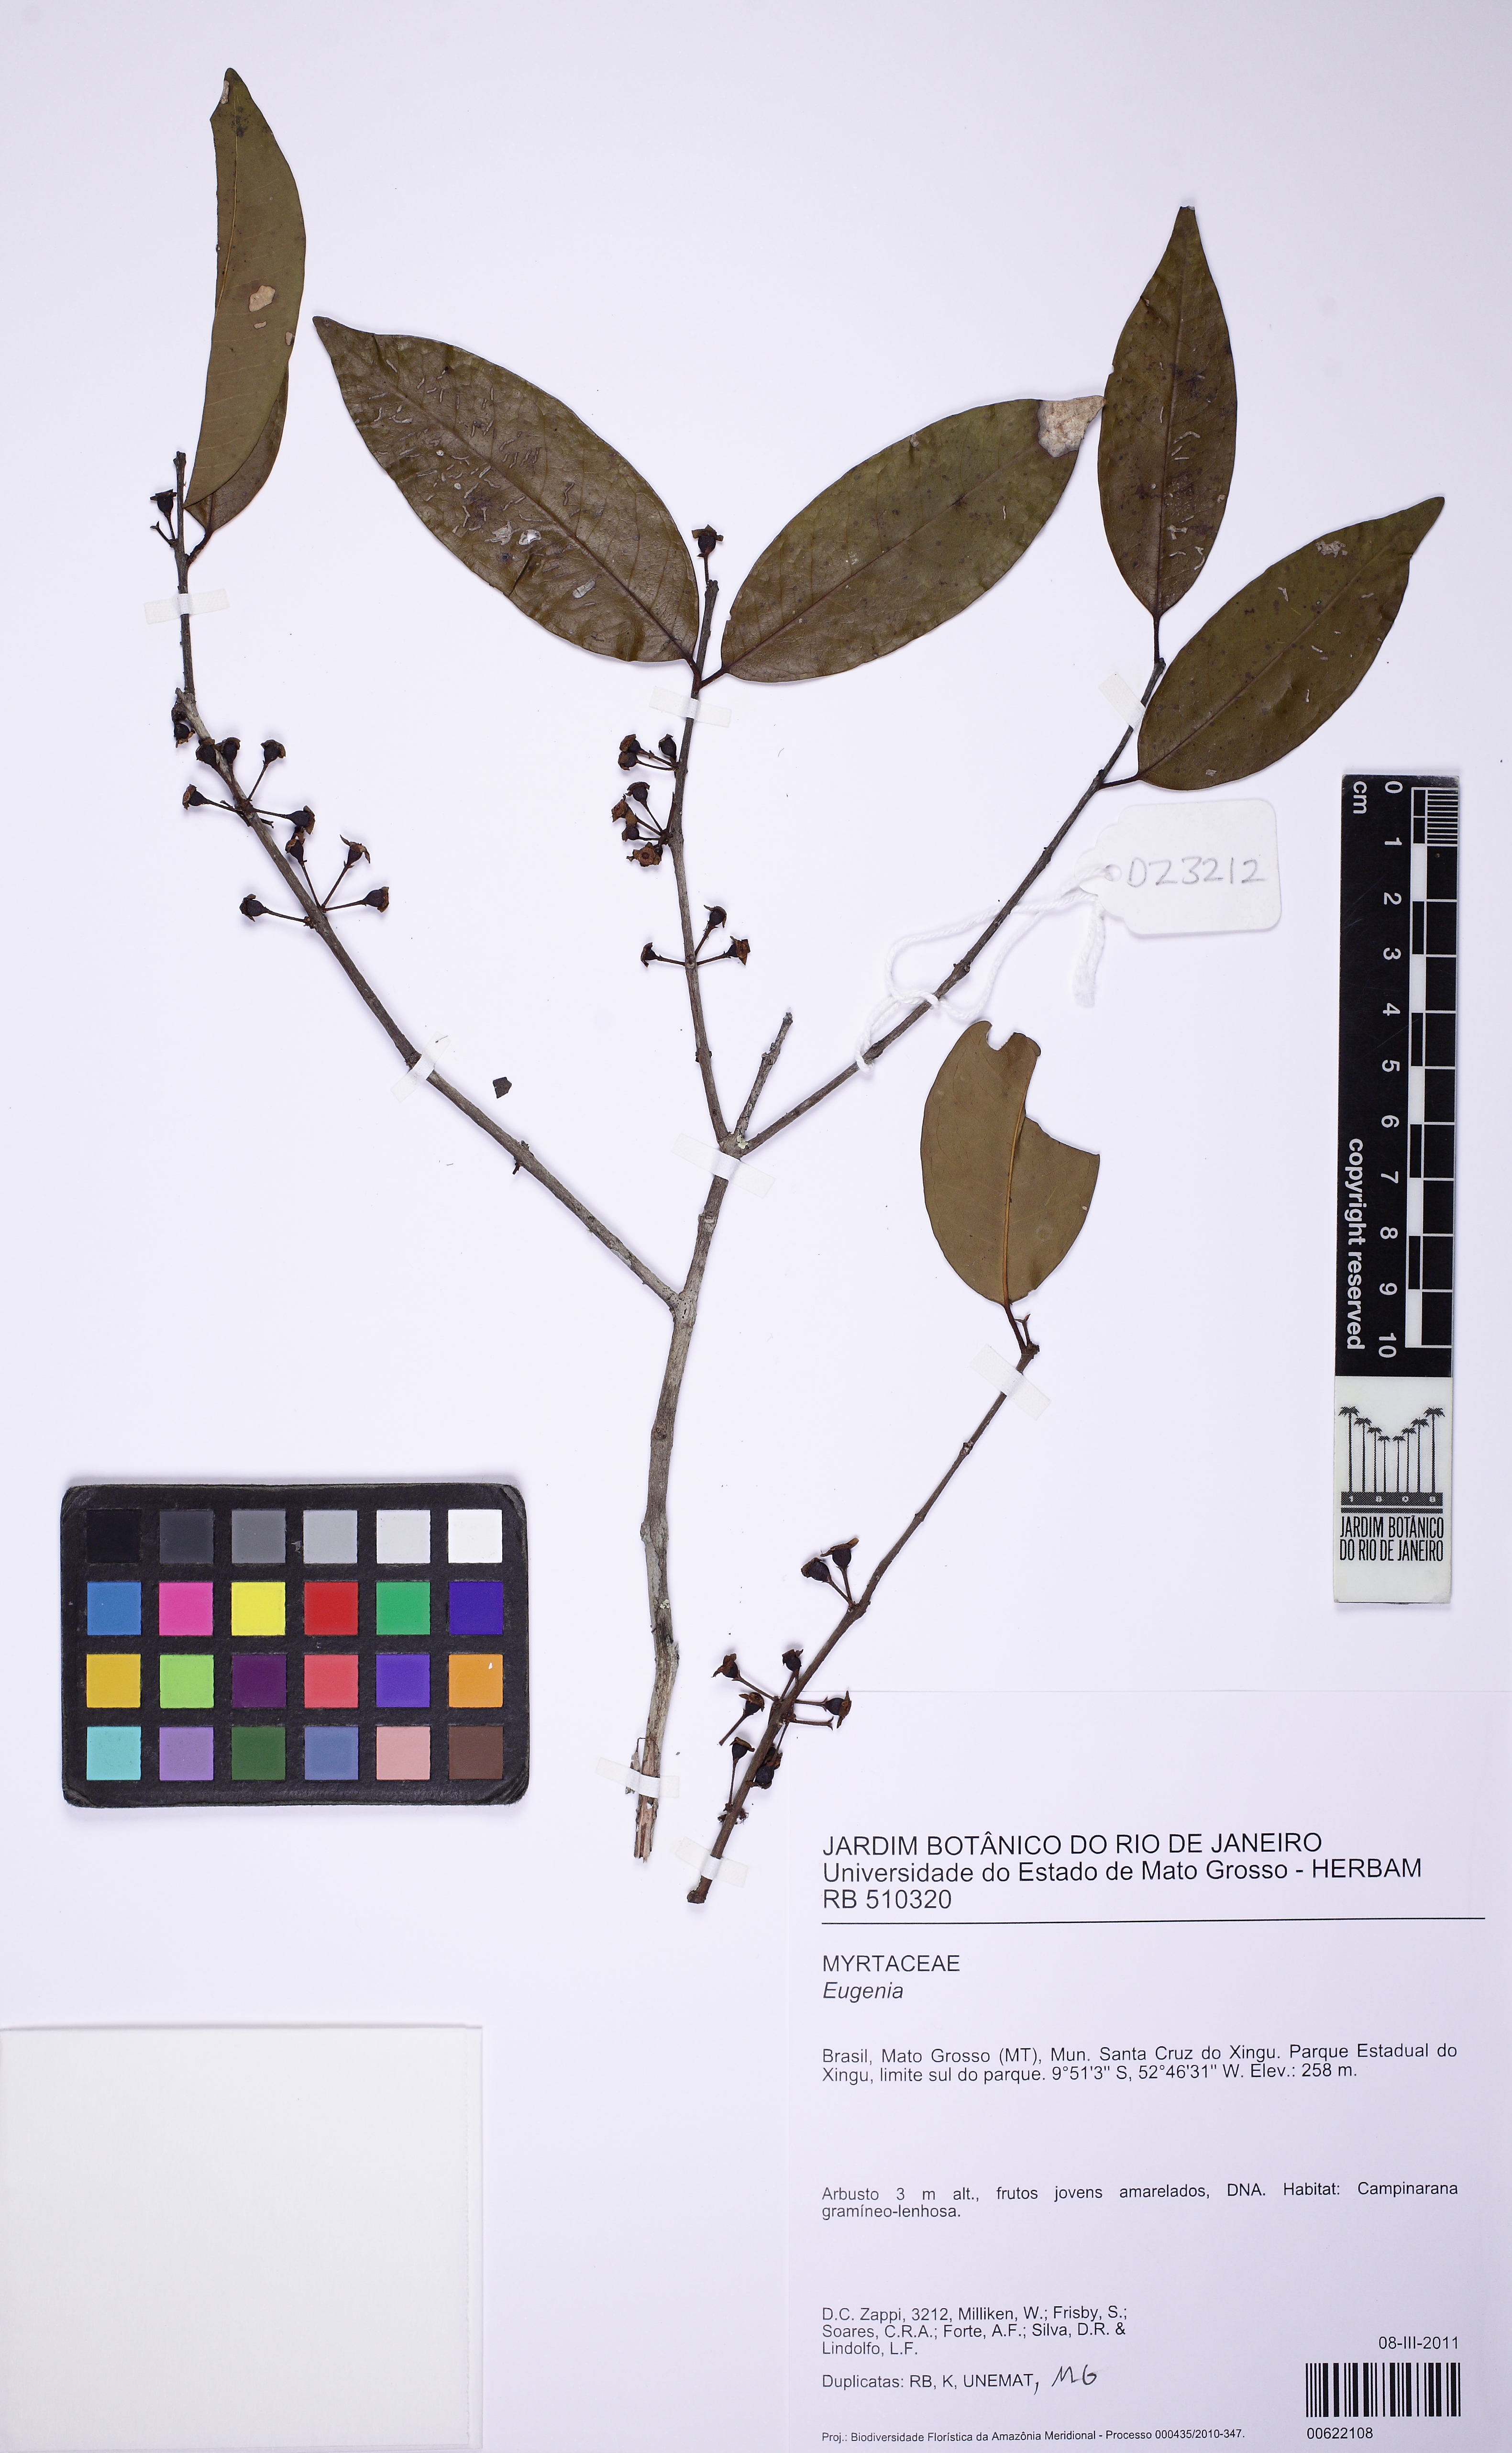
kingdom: Plantae
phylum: Tracheophyta
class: Magnoliopsida
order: Myrtales
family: Myrtaceae
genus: Eugenia
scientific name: Eugenia lambertiana
